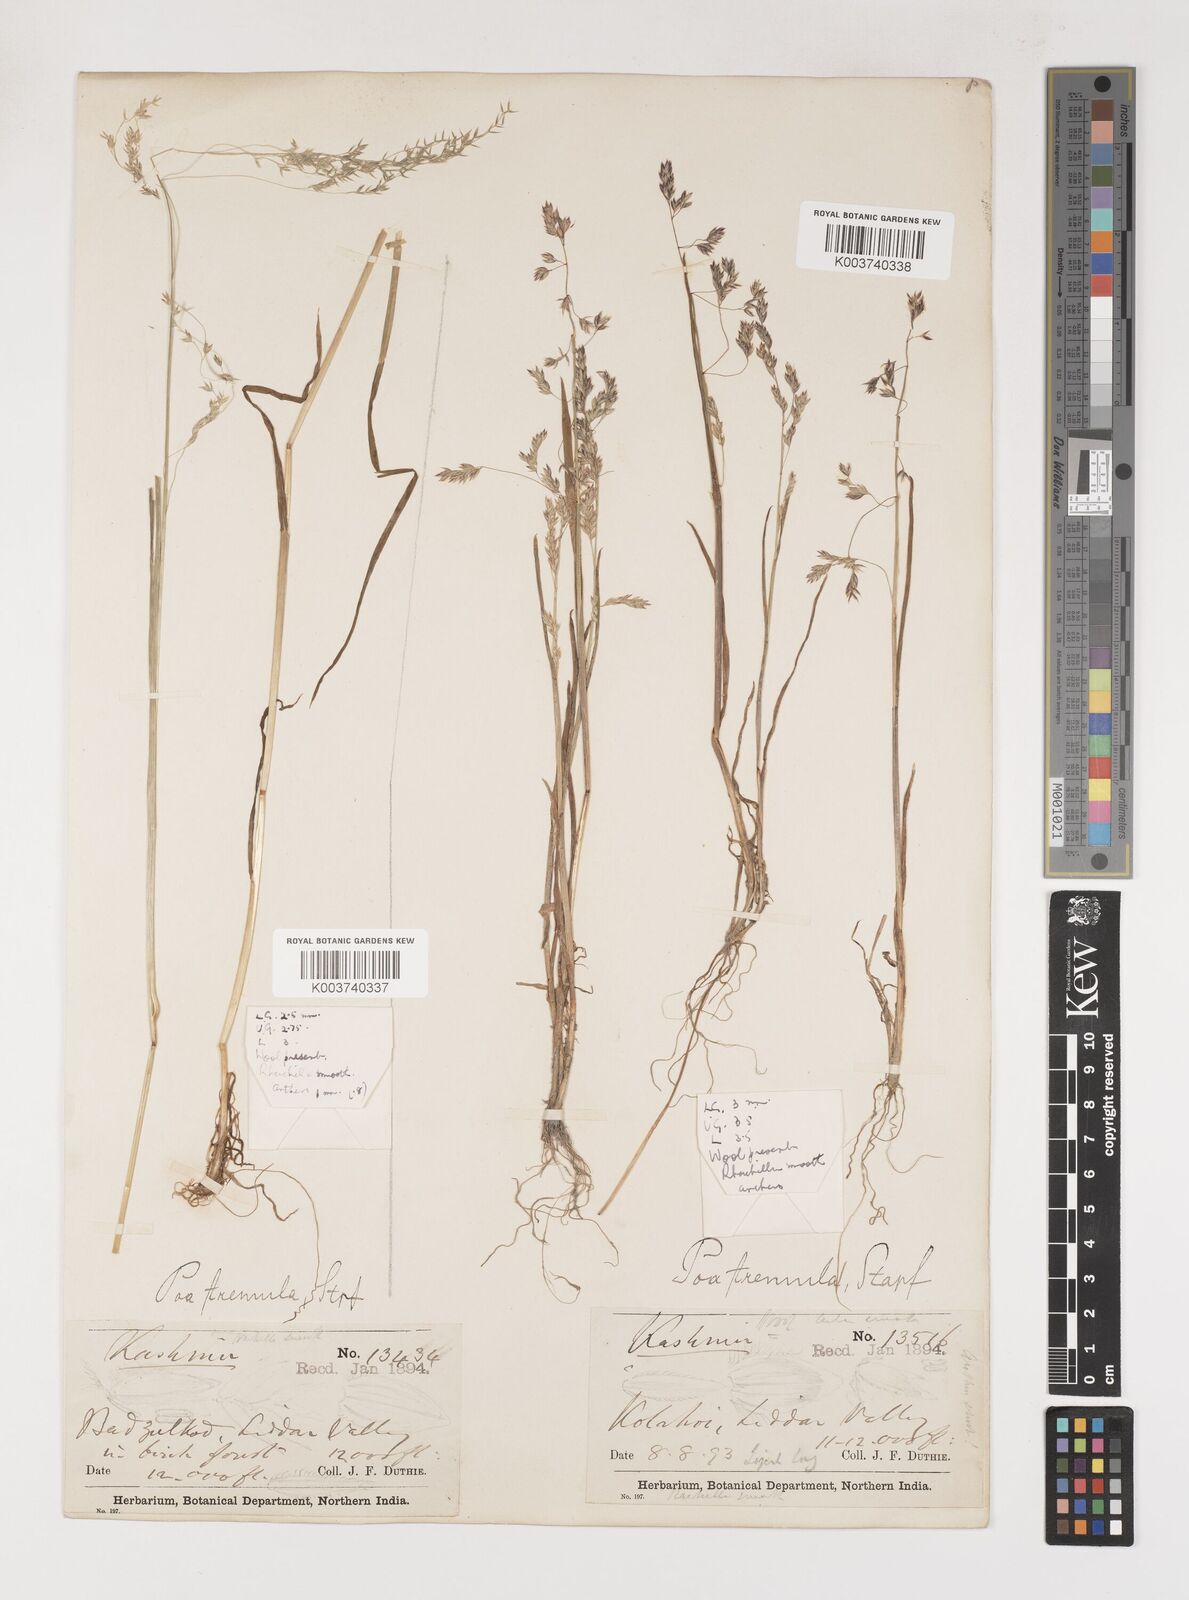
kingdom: Plantae
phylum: Tracheophyta
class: Liliopsida
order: Poales
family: Poaceae
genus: Poa
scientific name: Poa stapfiana
